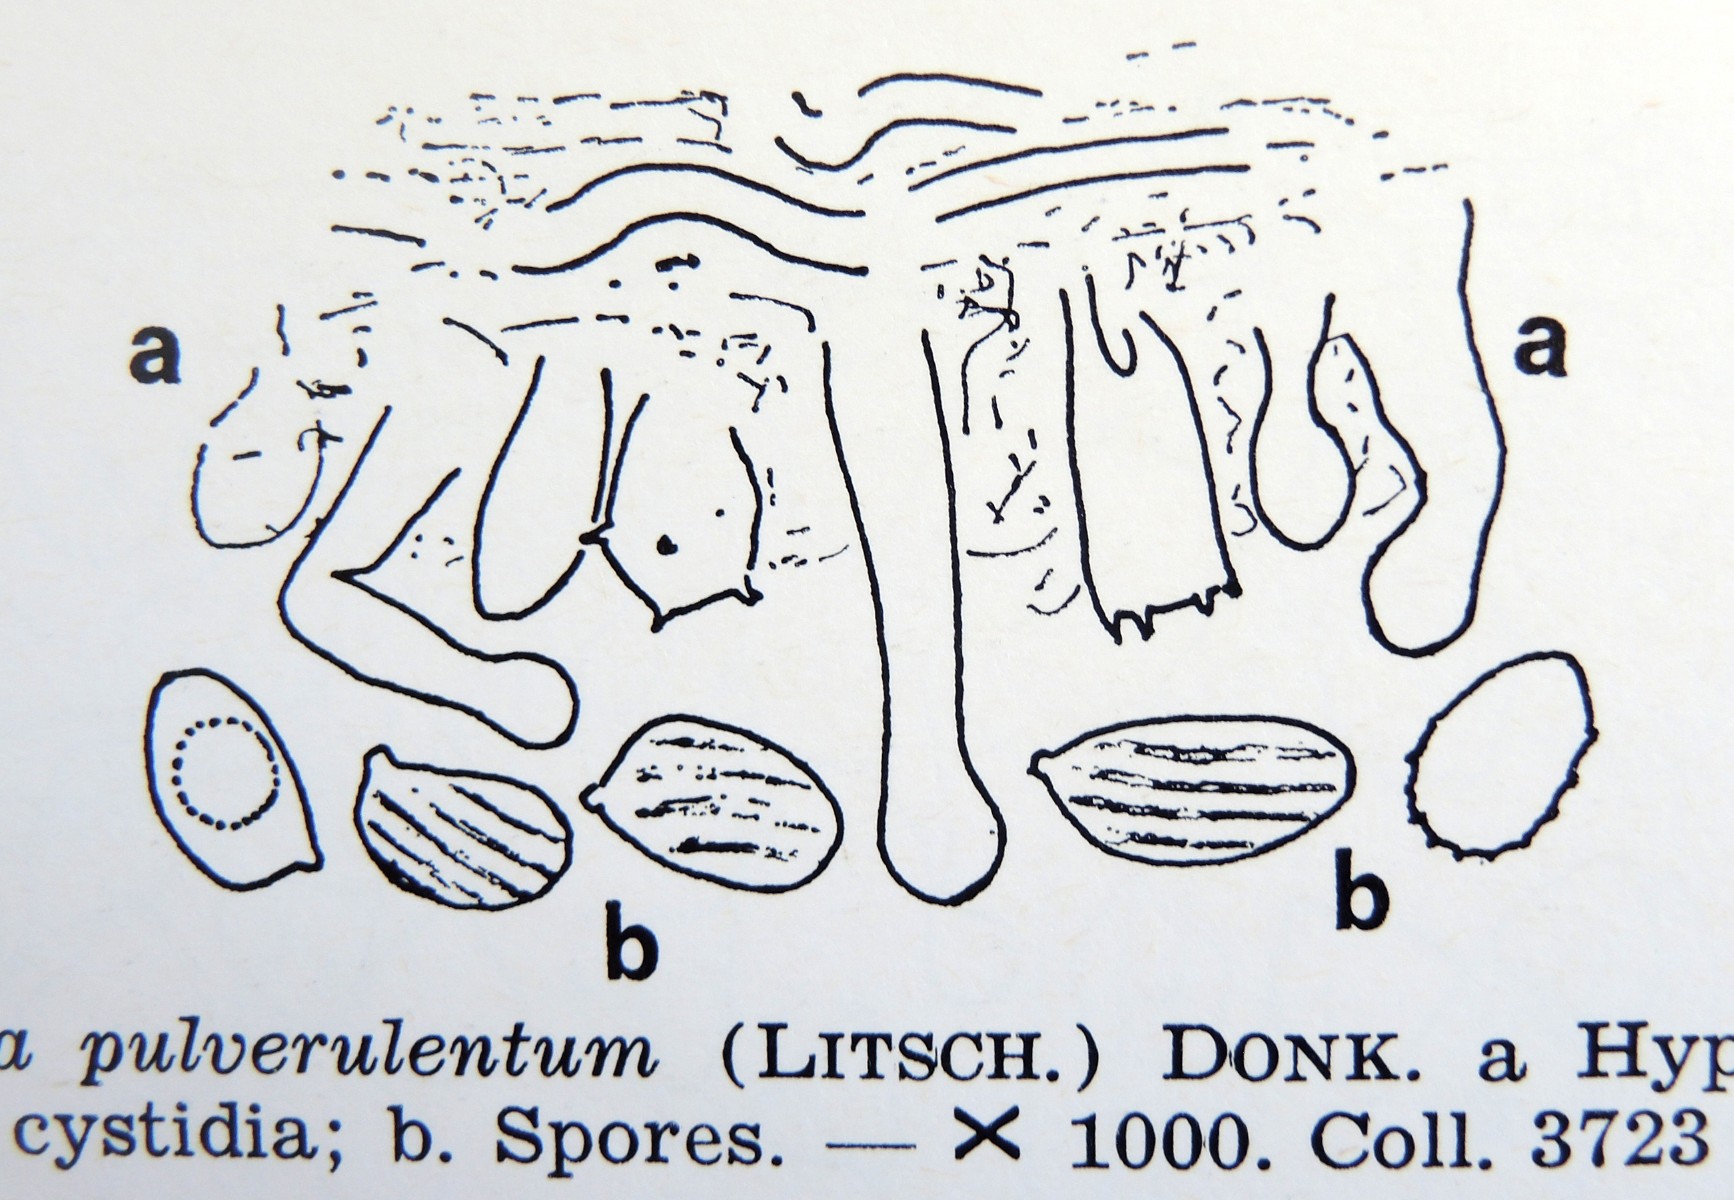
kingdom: Fungi
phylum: Basidiomycota
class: Agaricomycetes
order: Russulales
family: Xenasmataceae
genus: Xenasma
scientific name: Xenasma pulverulentum
